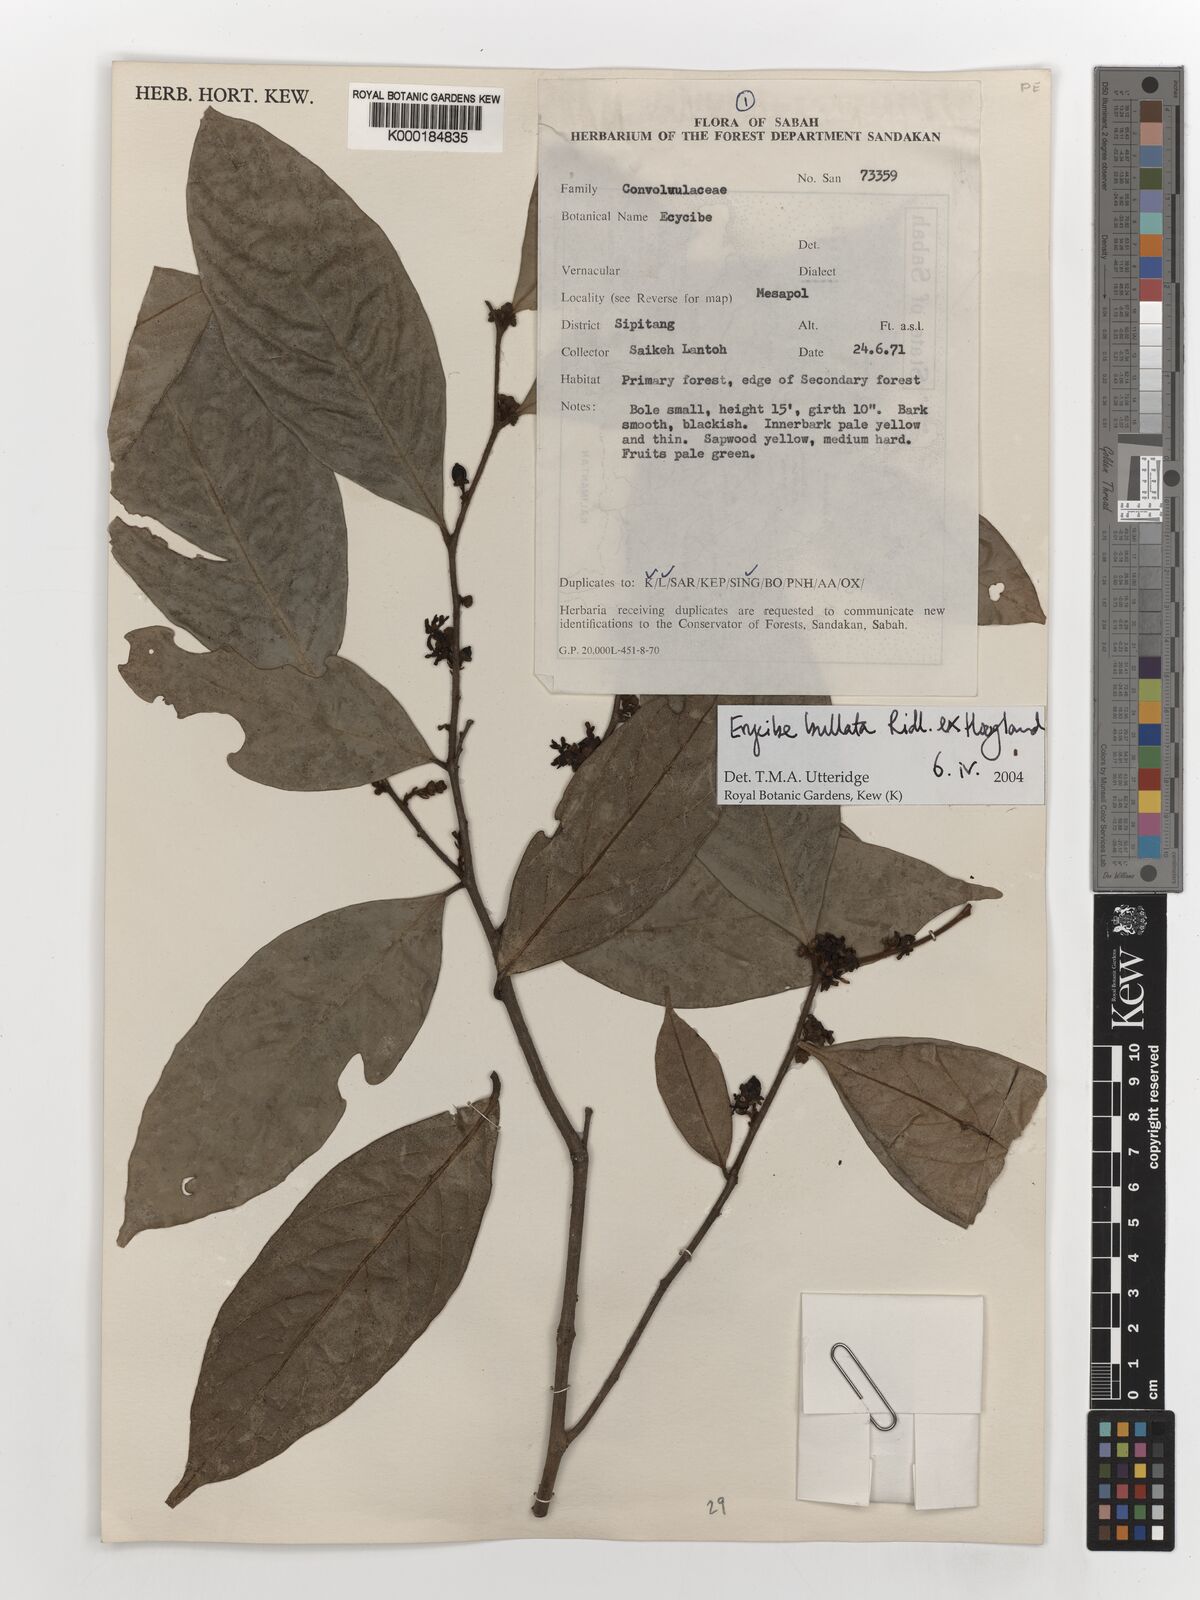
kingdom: Plantae
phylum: Tracheophyta
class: Magnoliopsida
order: Solanales
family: Convolvulaceae
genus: Erycibe
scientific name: Erycibe bullata
